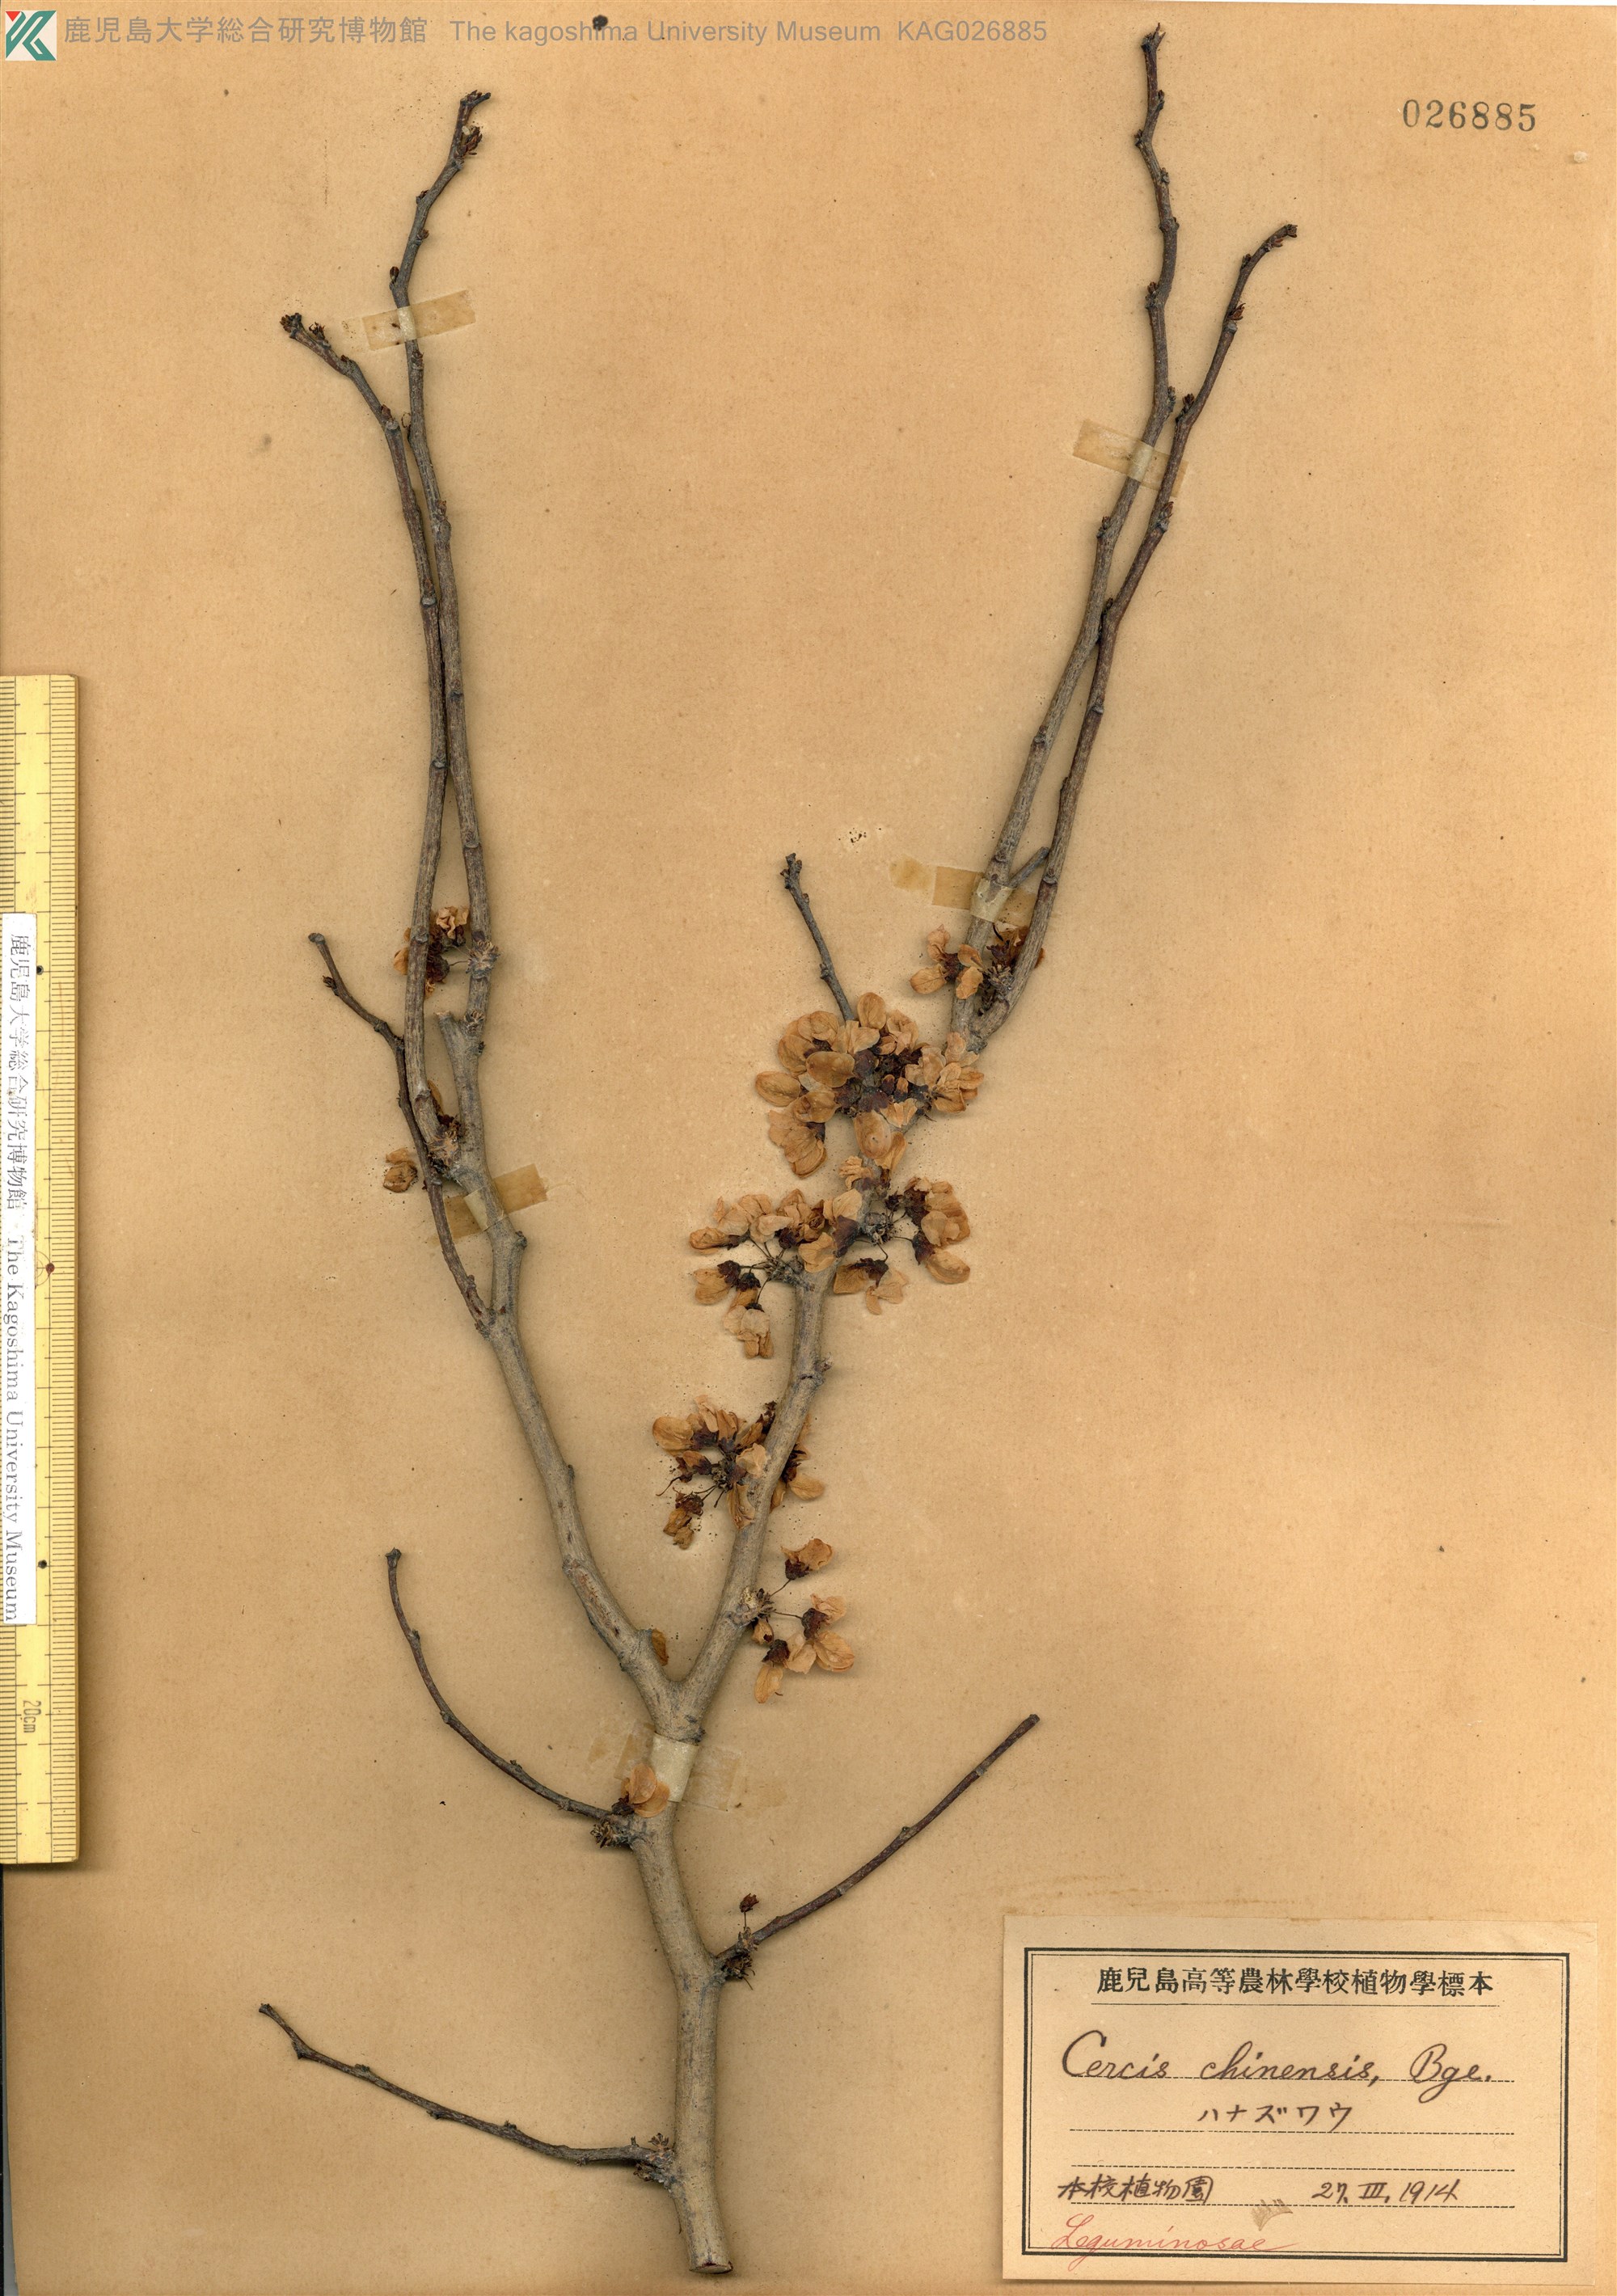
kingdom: Plantae
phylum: Tracheophyta
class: Magnoliopsida
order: Fabales
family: Fabaceae
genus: Cercis
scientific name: Cercis chinensis
